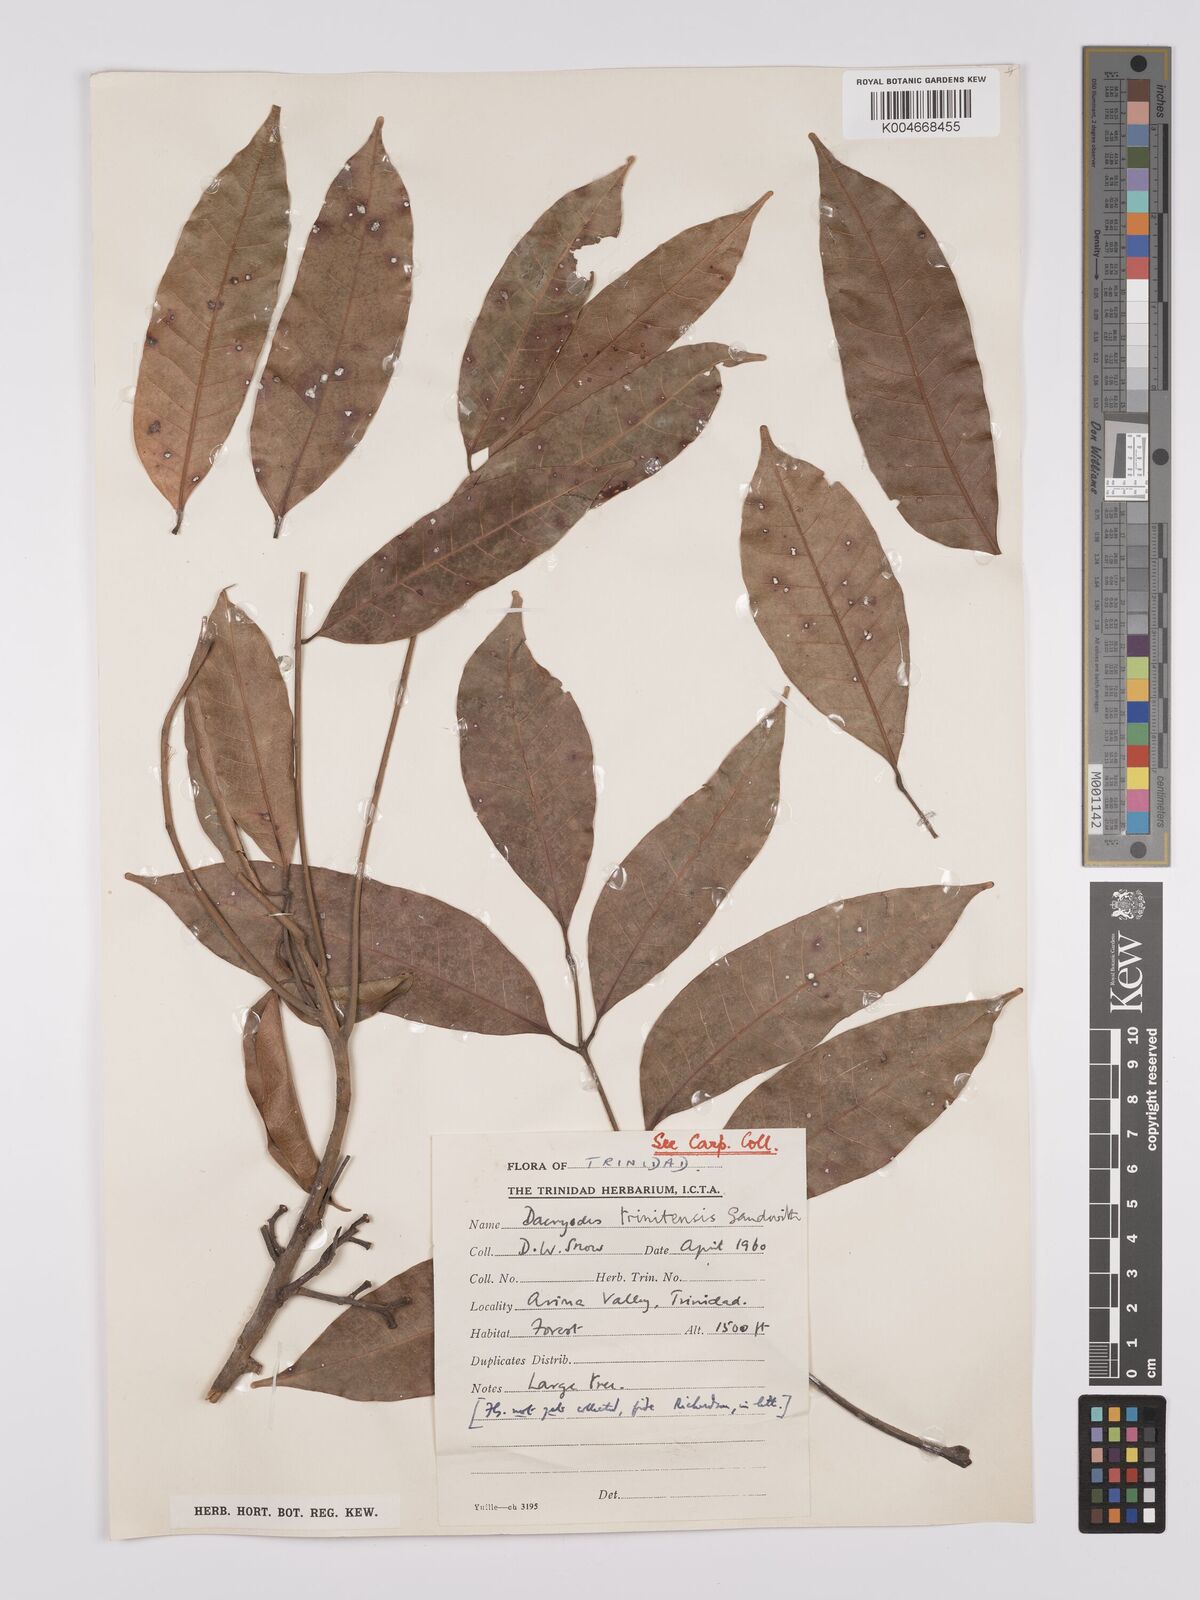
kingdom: Plantae
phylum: Tracheophyta
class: Magnoliopsida
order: Sapindales
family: Burseraceae
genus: Dacryodes
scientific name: Dacryodes belemensis
